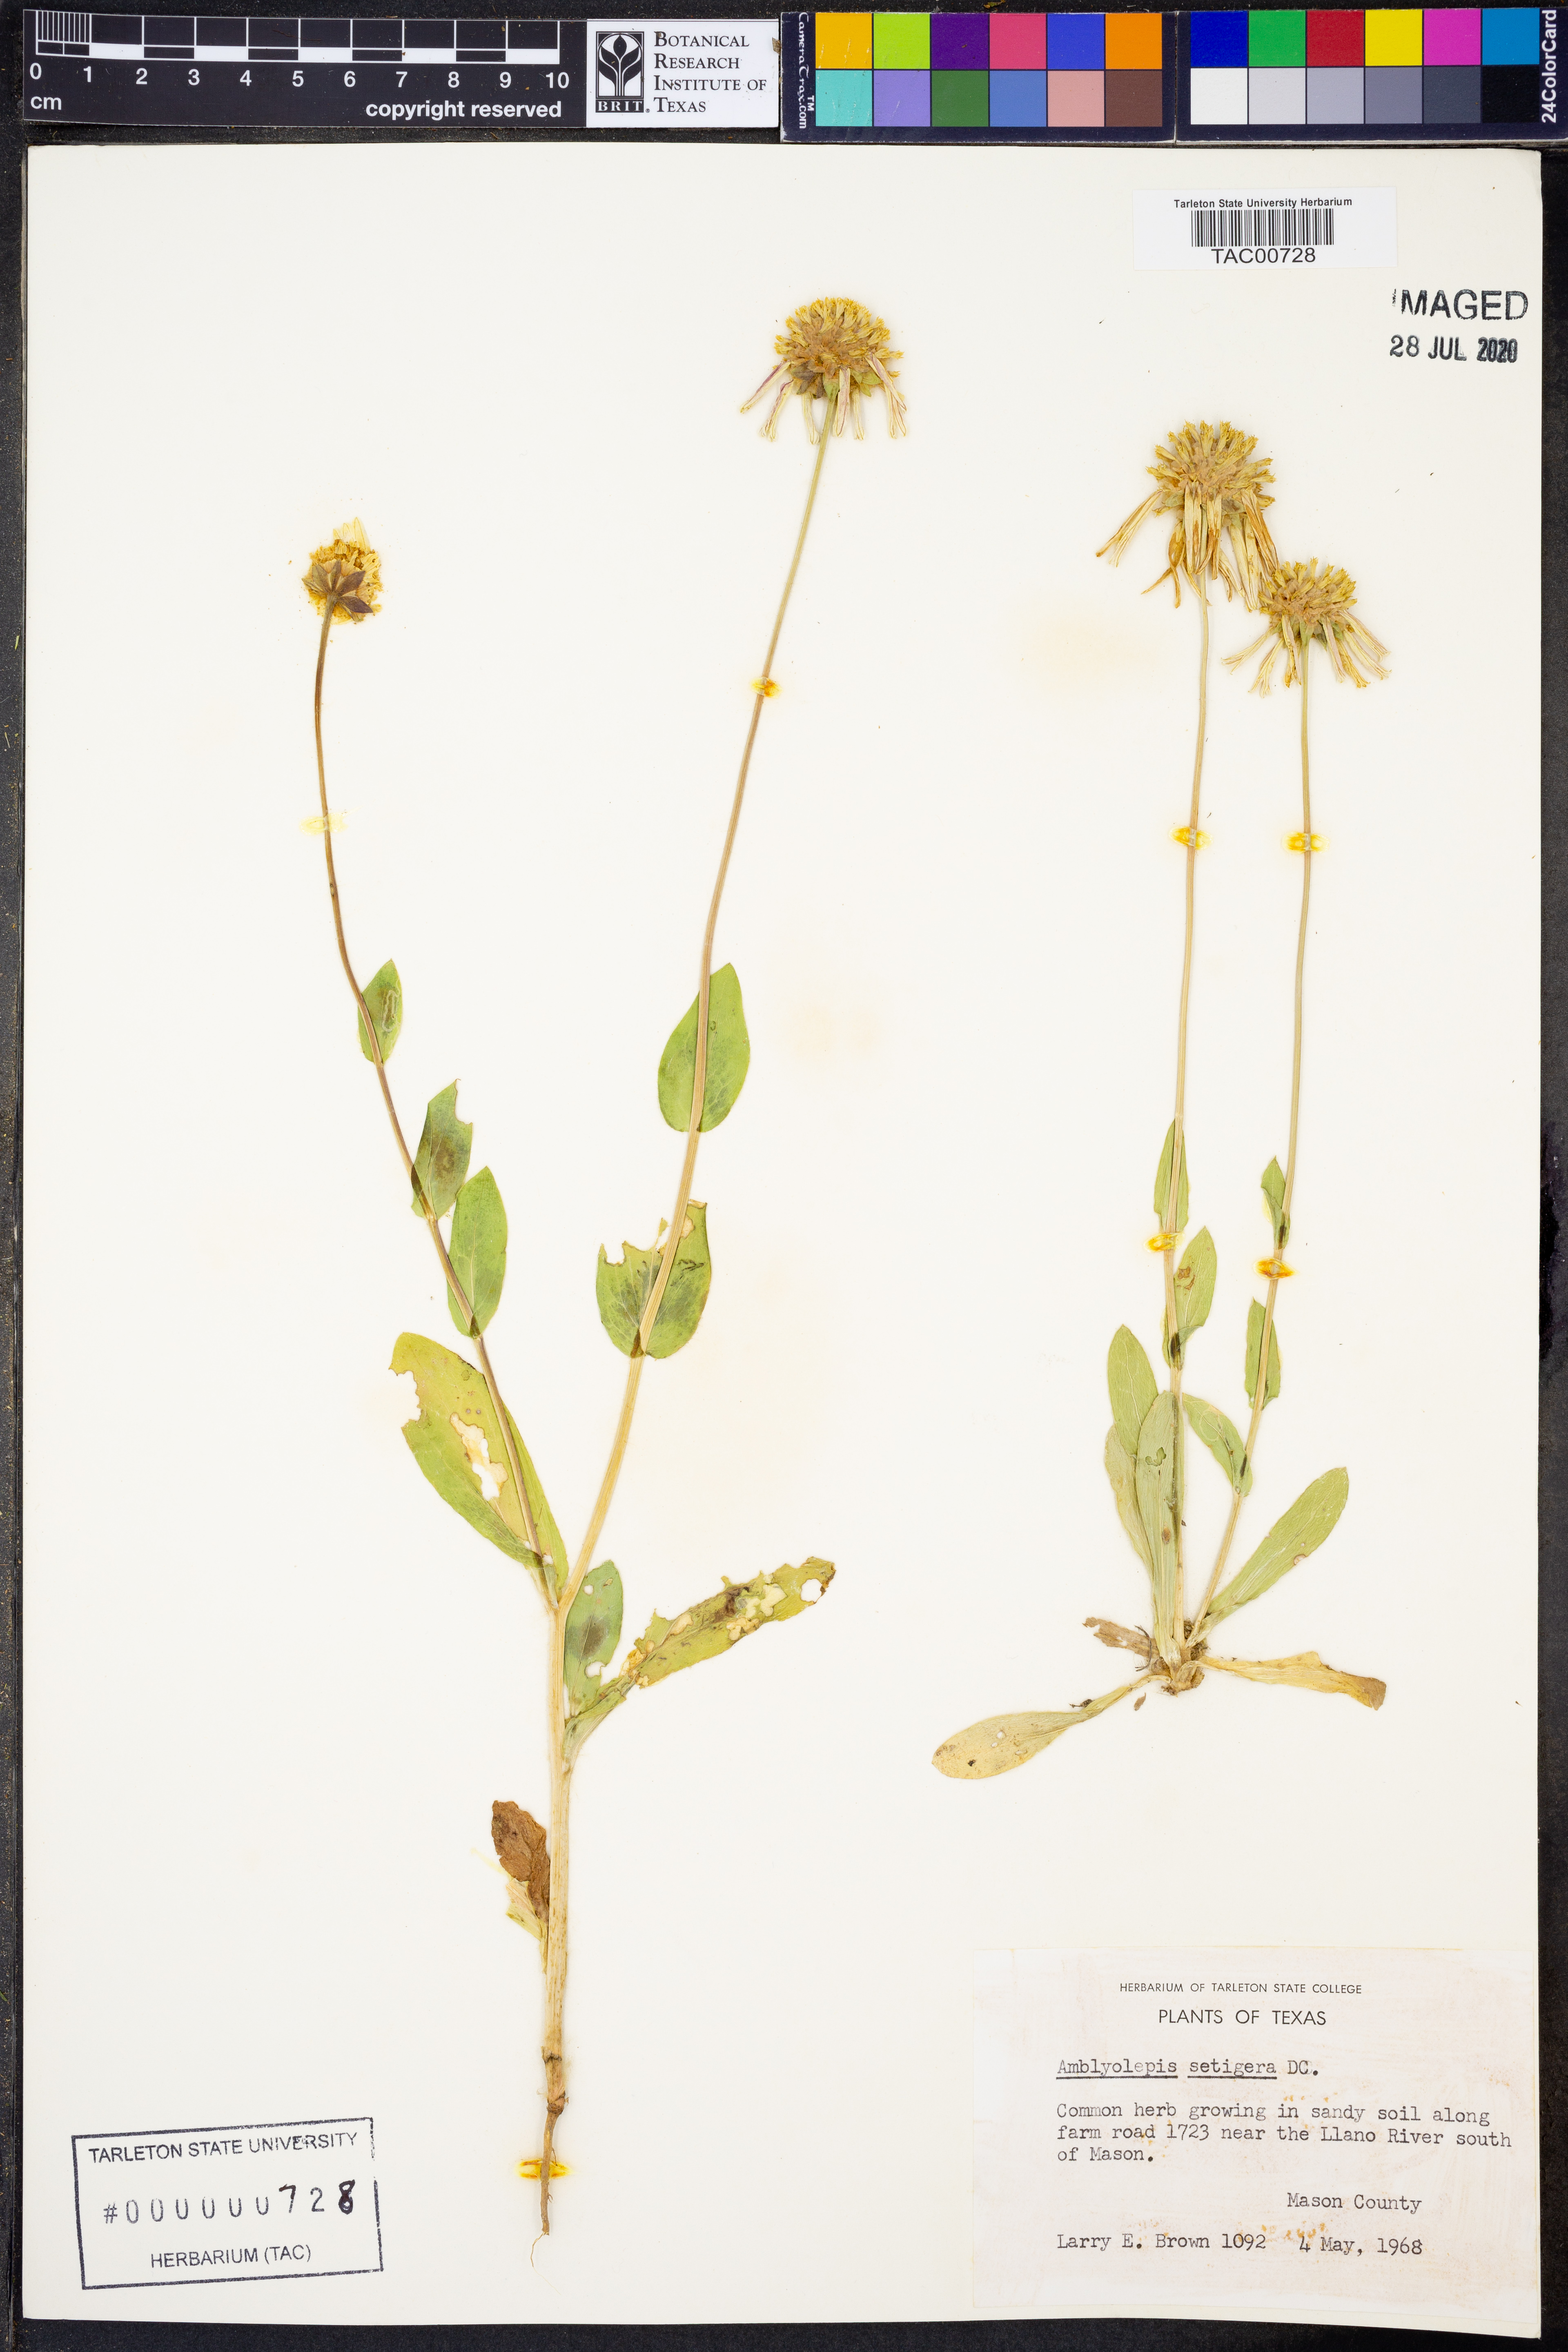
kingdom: Plantae
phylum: Tracheophyta
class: Magnoliopsida
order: Asterales
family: Asteraceae
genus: Amblyolepis
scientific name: Amblyolepis setigera
